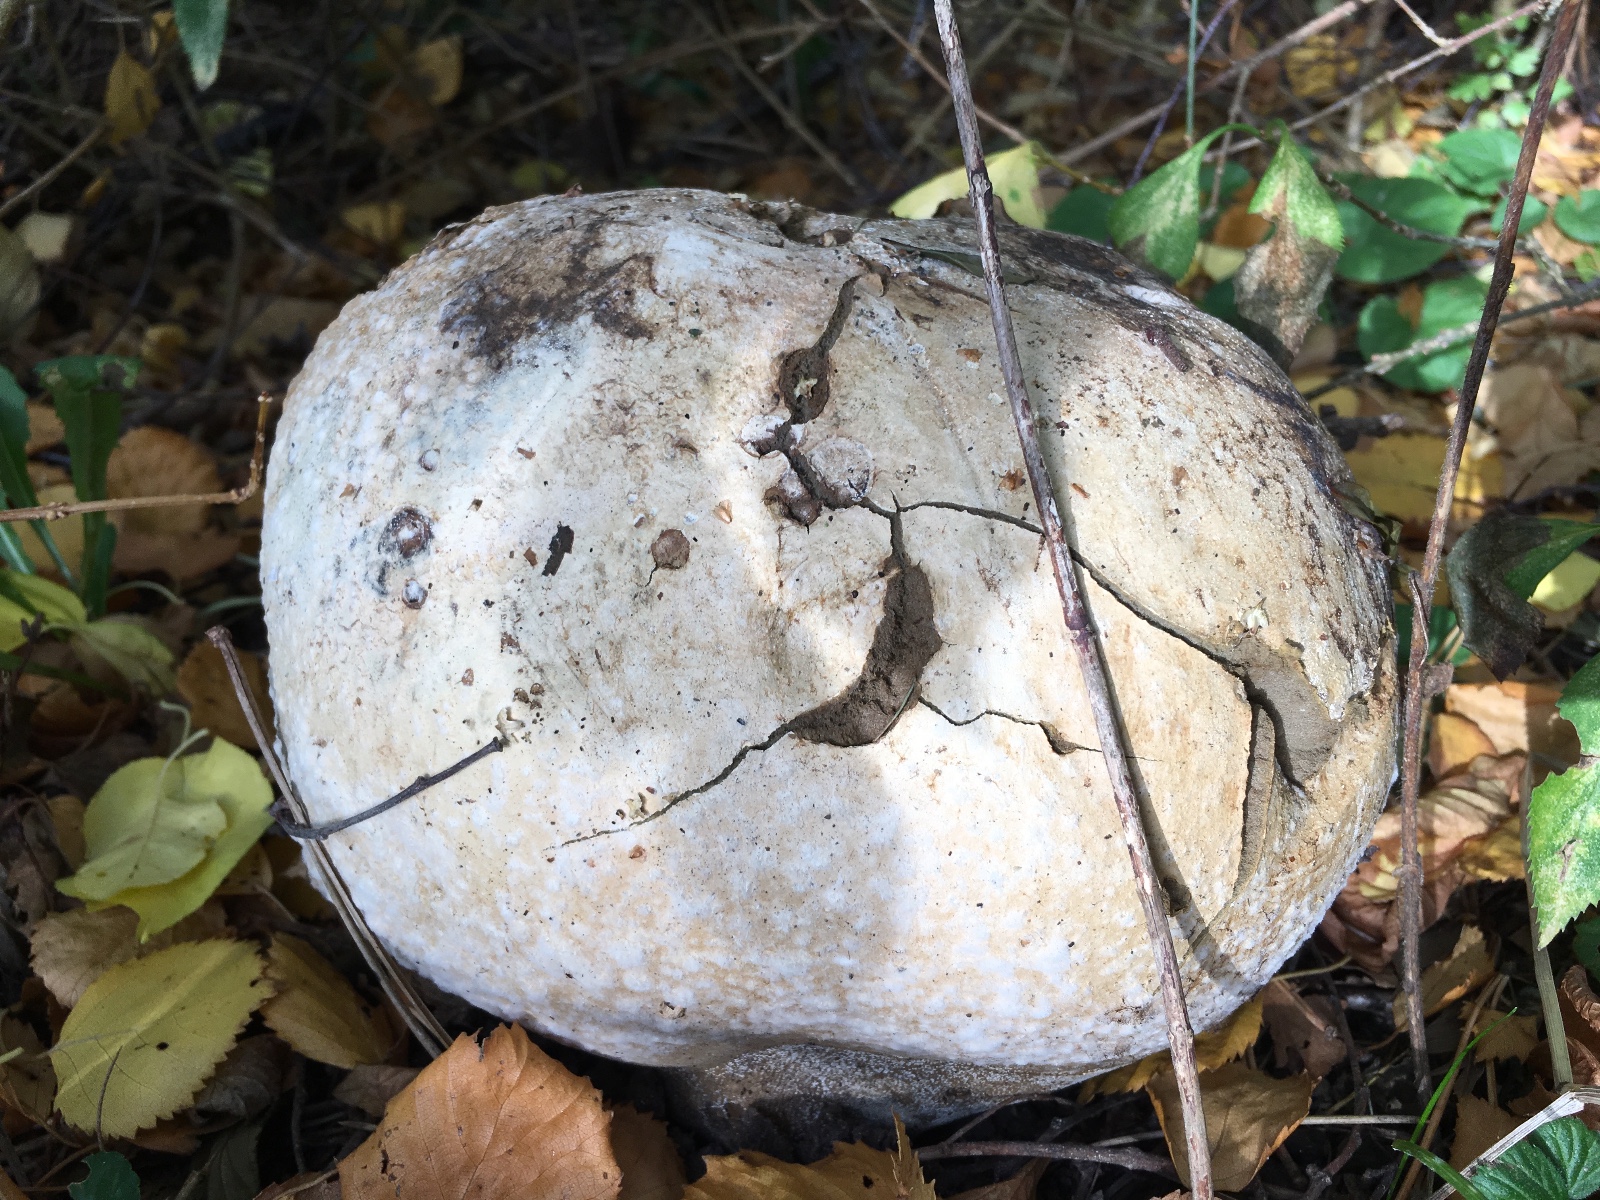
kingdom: Fungi
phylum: Basidiomycota
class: Agaricomycetes
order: Agaricales
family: Lycoperdaceae
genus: Calvatia
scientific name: Calvatia gigantea
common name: kæmpestøvbold
